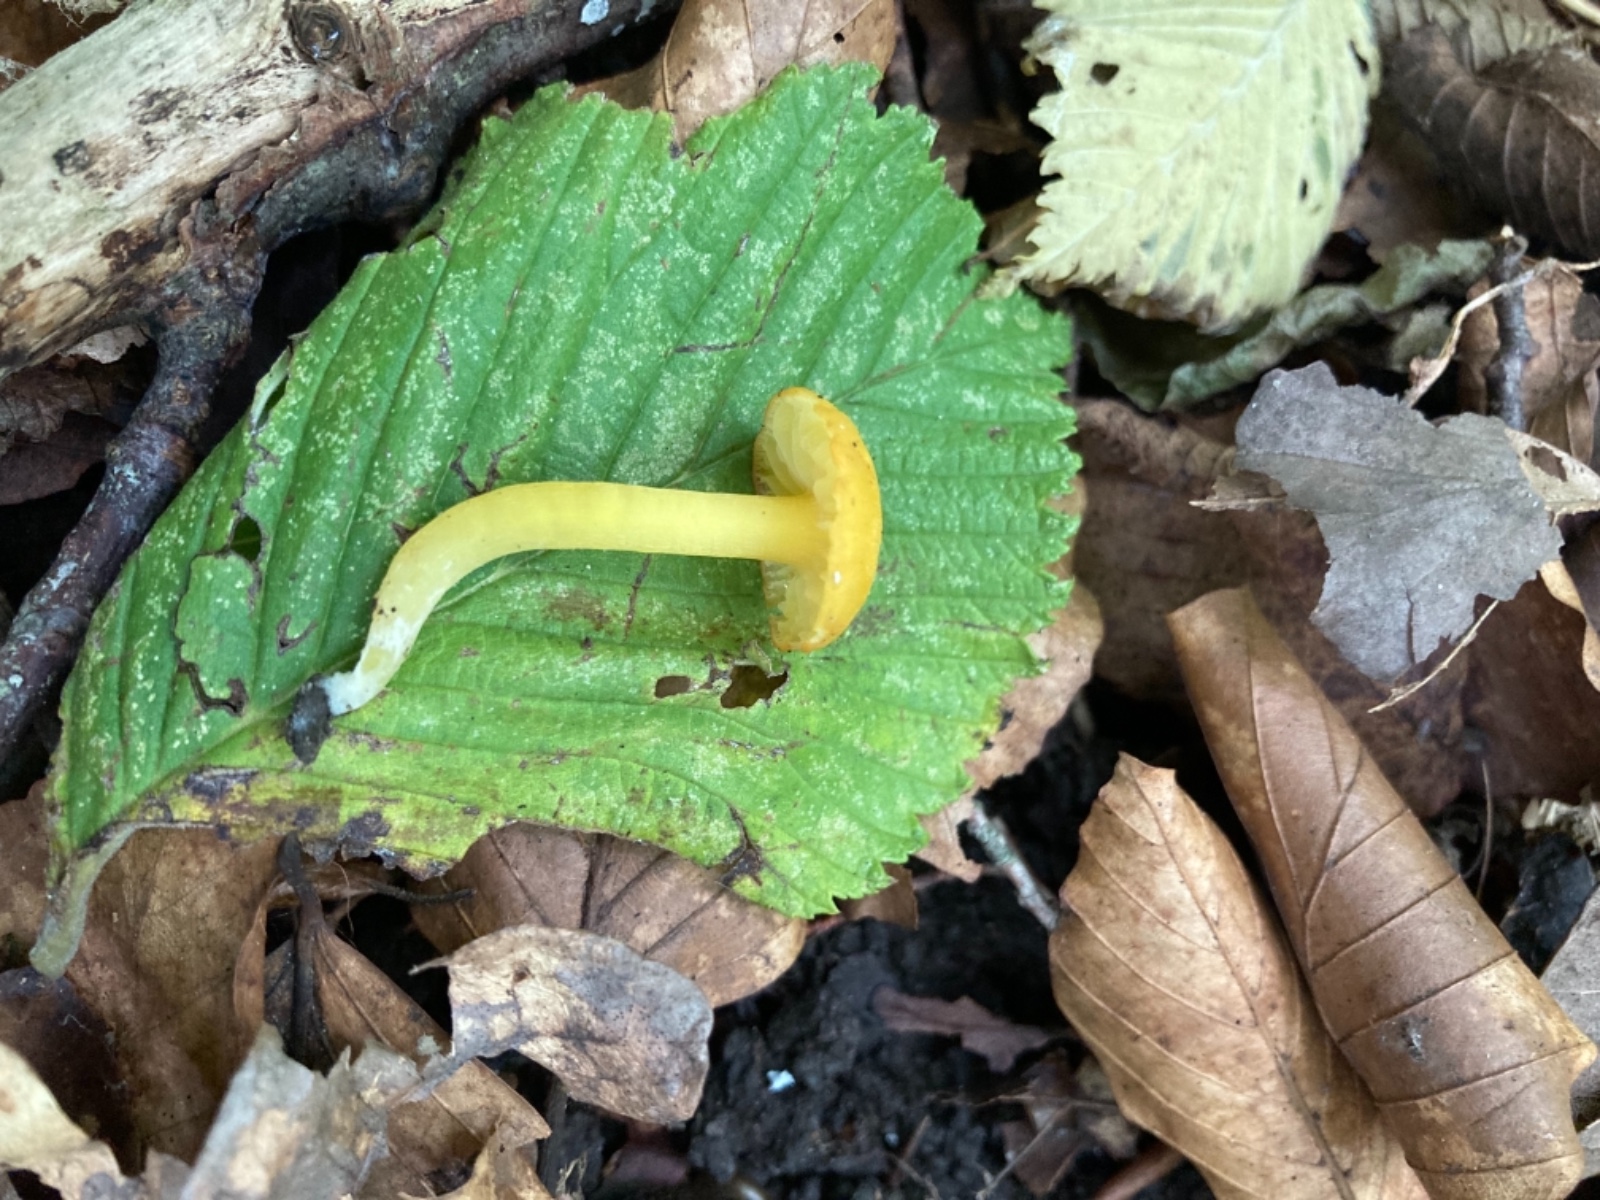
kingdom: Fungi
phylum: Basidiomycota
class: Agaricomycetes
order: Agaricales
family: Hygrophoraceae
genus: Hygrocybe
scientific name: Hygrocybe ceracea
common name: voksgul vokshat
